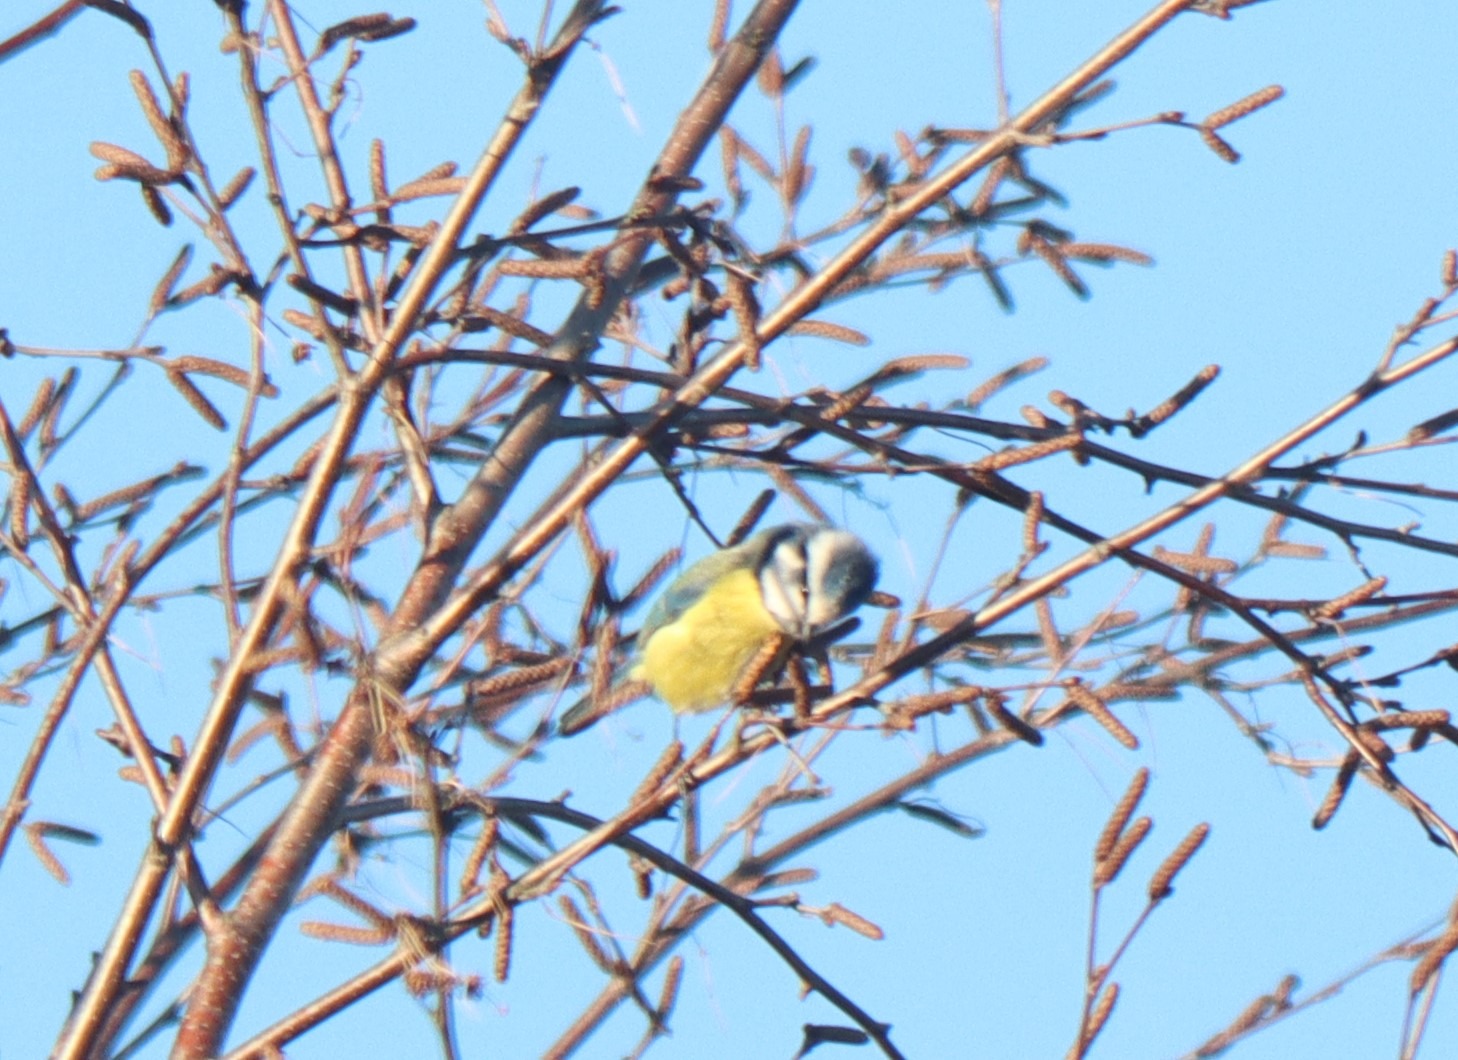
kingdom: Animalia
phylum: Chordata
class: Aves
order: Passeriformes
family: Paridae
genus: Cyanistes
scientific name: Cyanistes caeruleus
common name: Blåmejse
